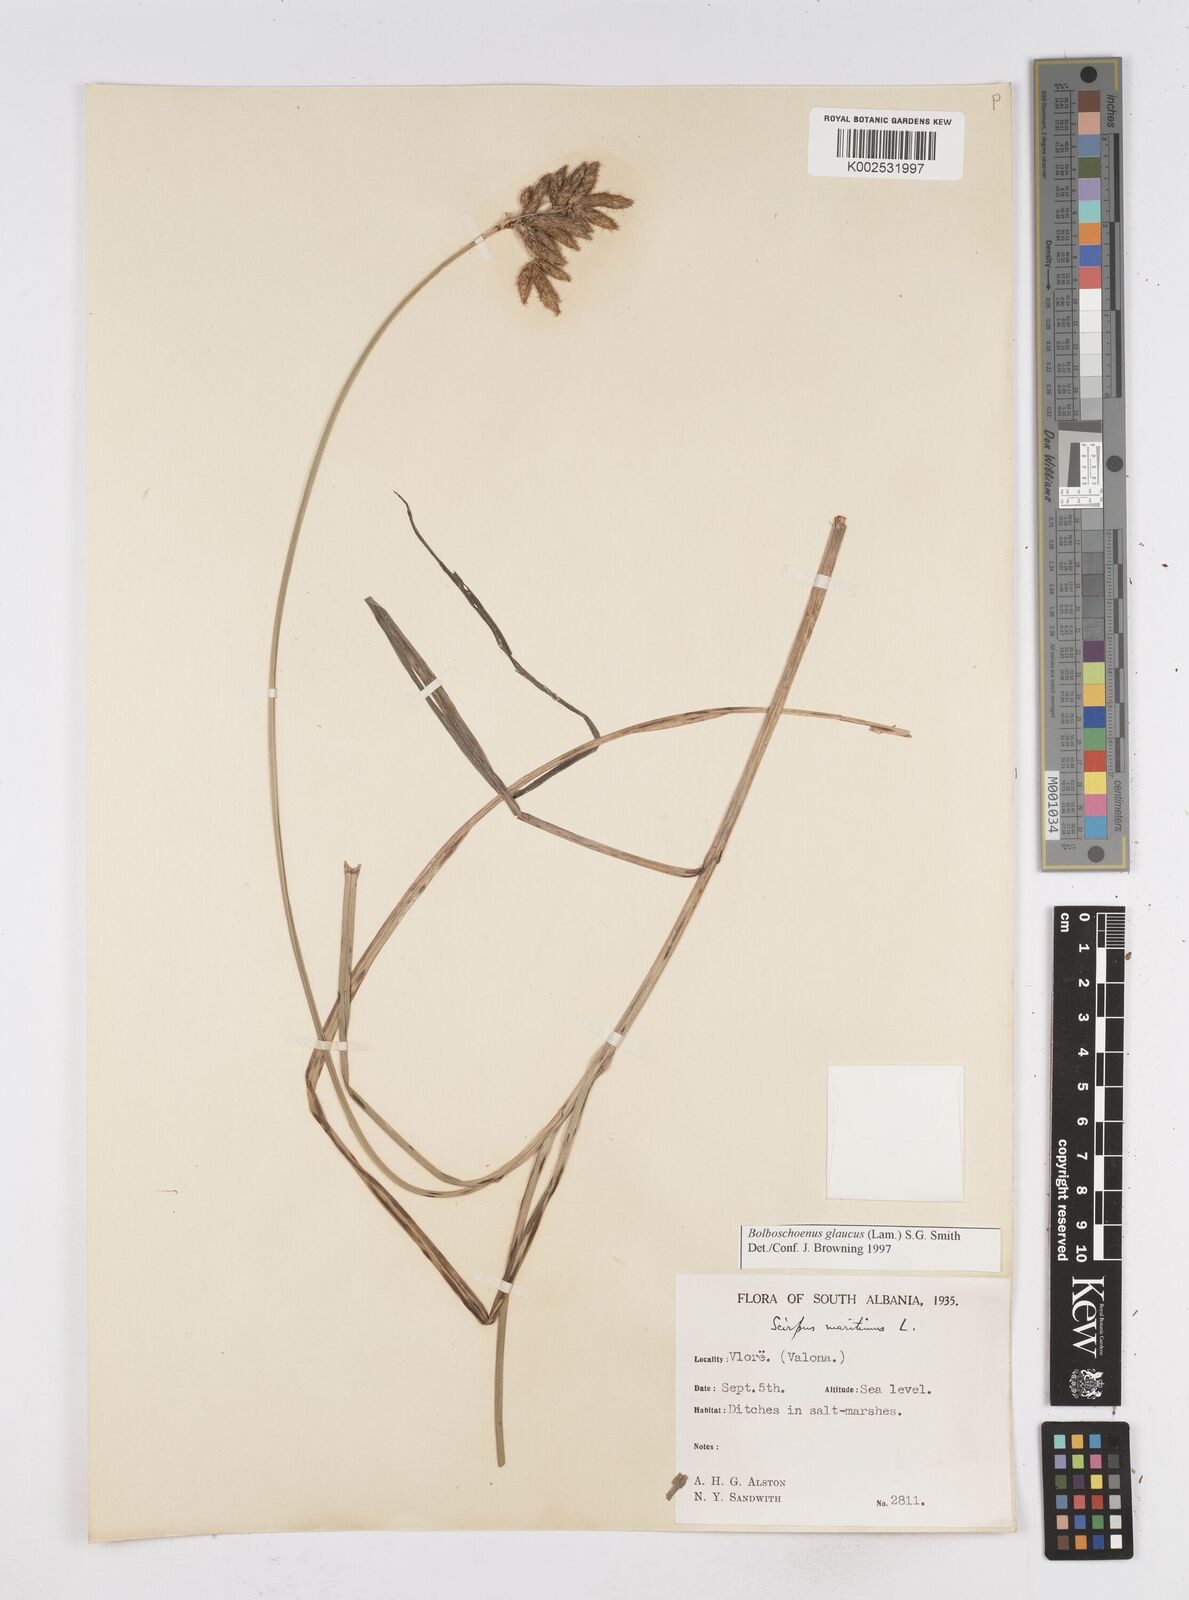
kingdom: Plantae
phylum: Tracheophyta
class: Liliopsida
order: Poales
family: Cyperaceae
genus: Bolboschoenus
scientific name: Bolboschoenus maritimus
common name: Sea club-rush
